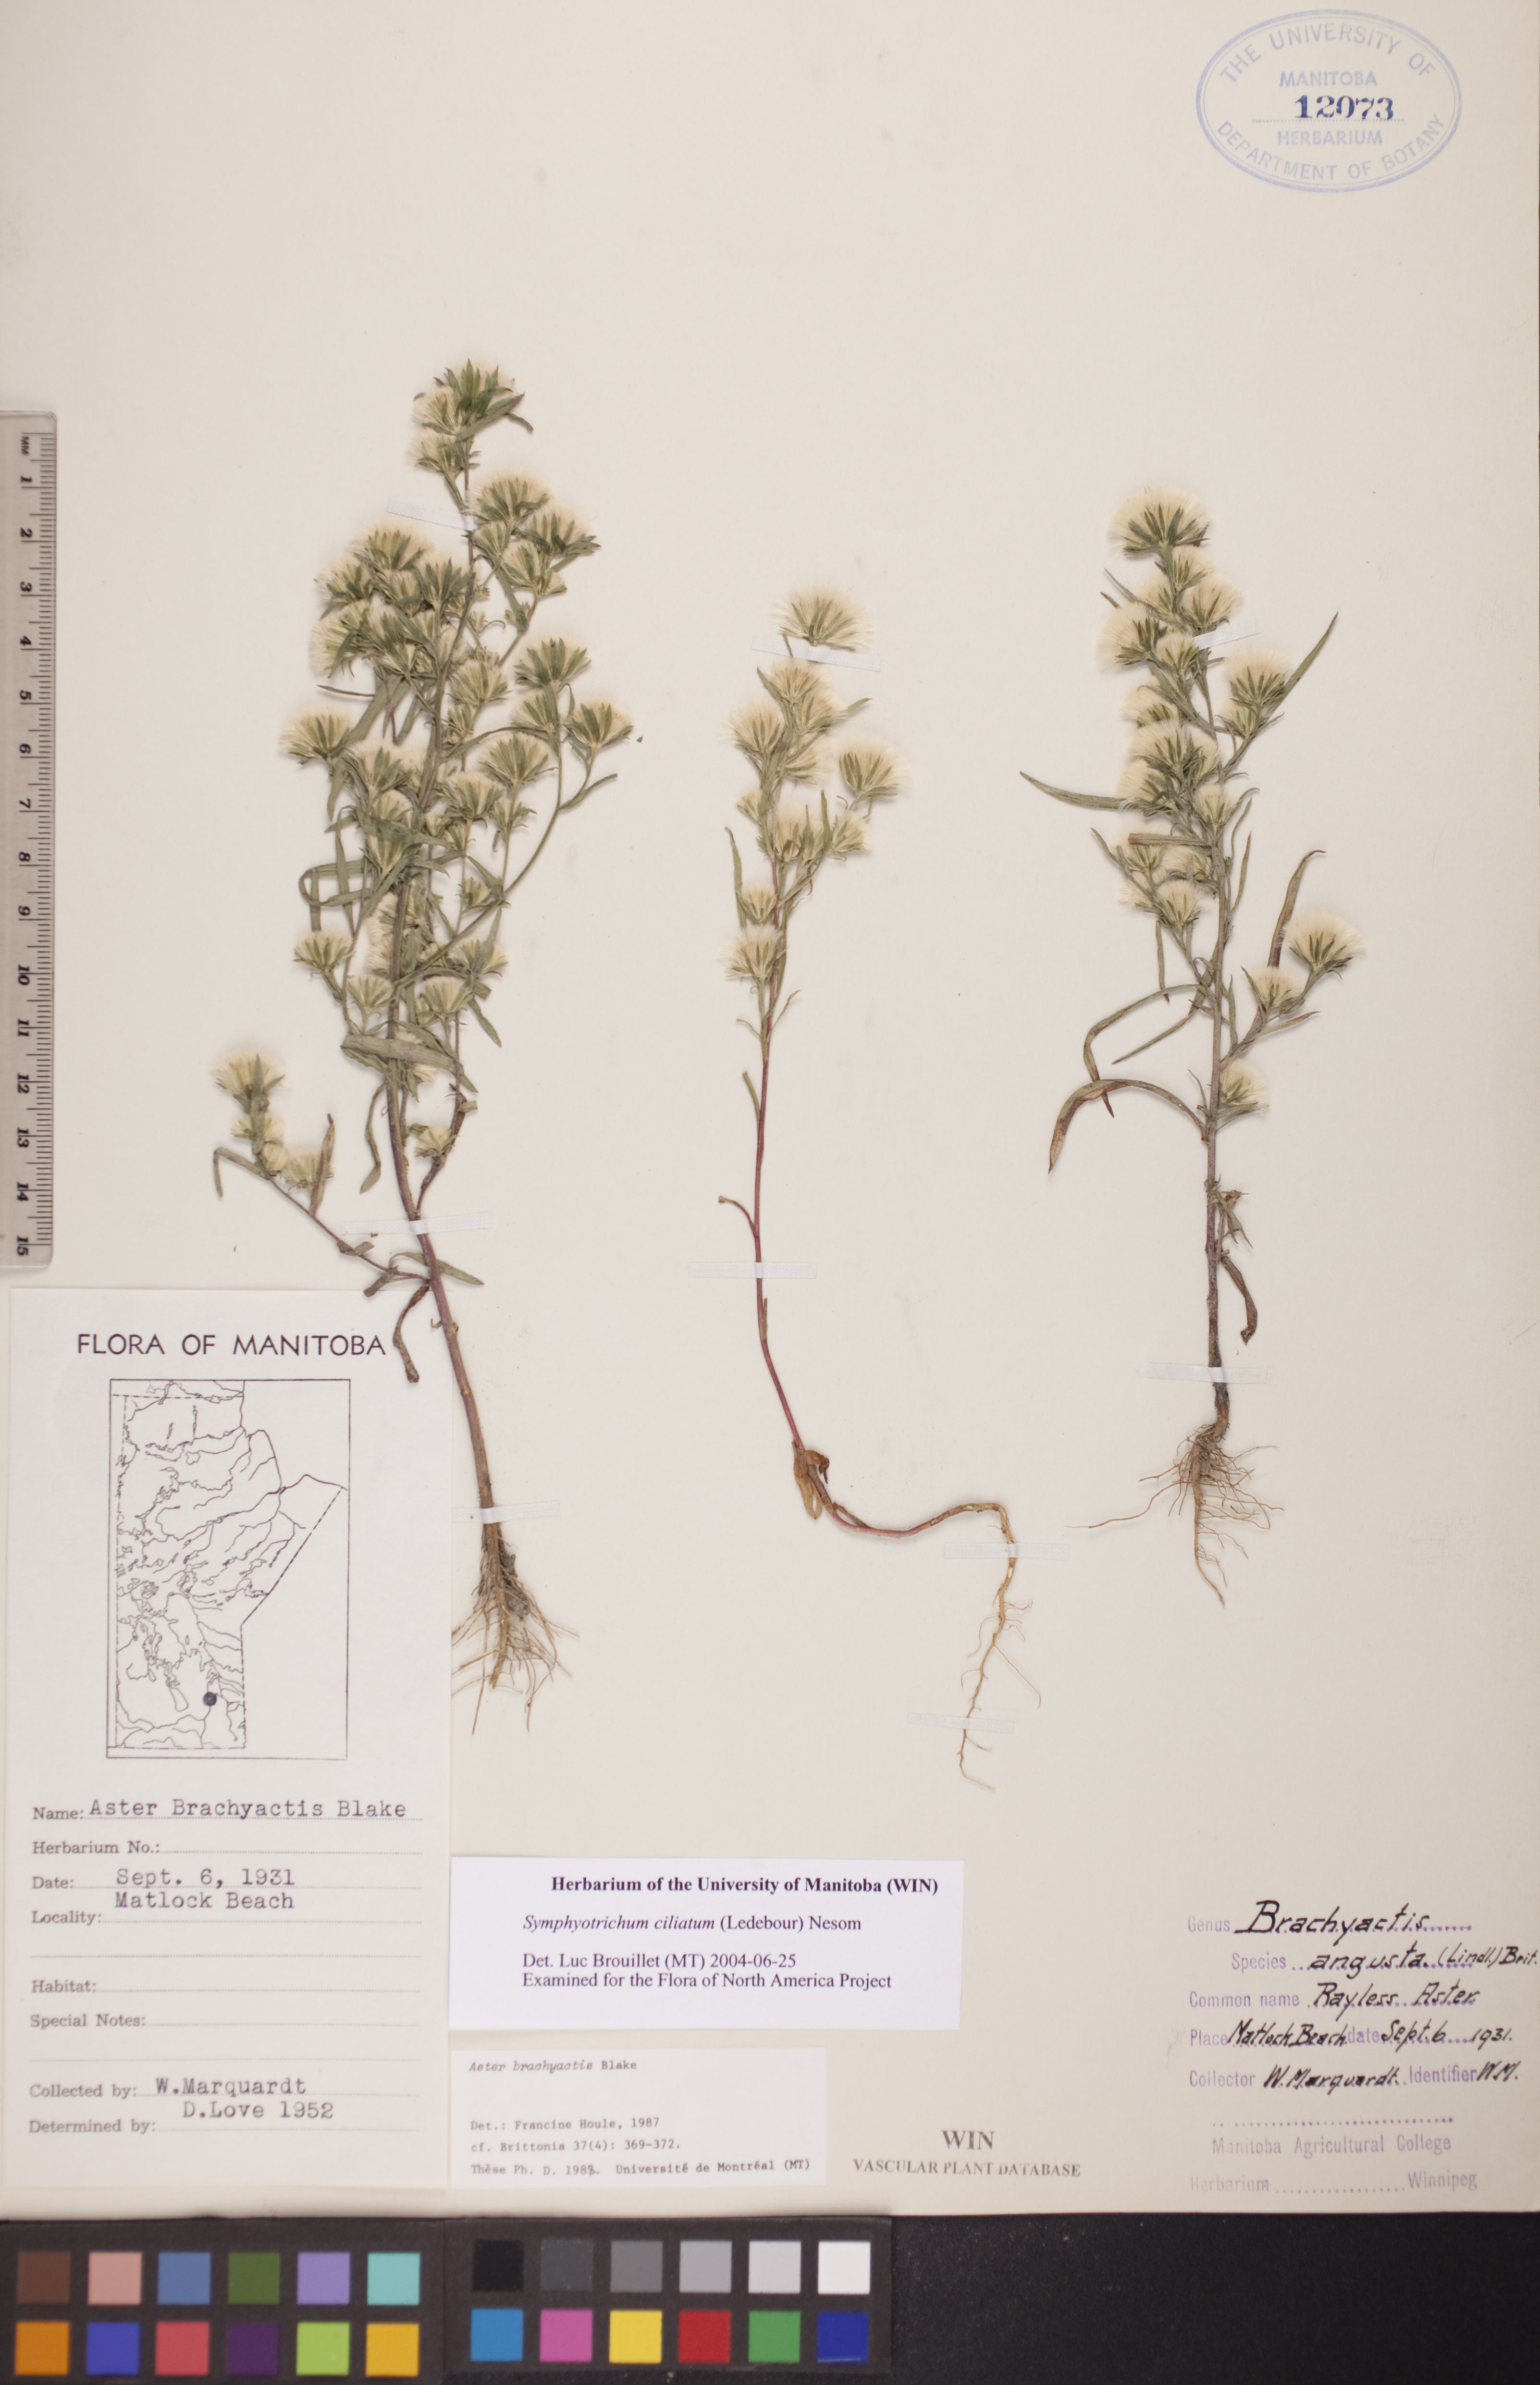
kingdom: Plantae
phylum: Tracheophyta
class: Magnoliopsida
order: Asterales
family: Asteraceae
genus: Symphyotrichum
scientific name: Symphyotrichum ciliatum
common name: Rayless annual aster
